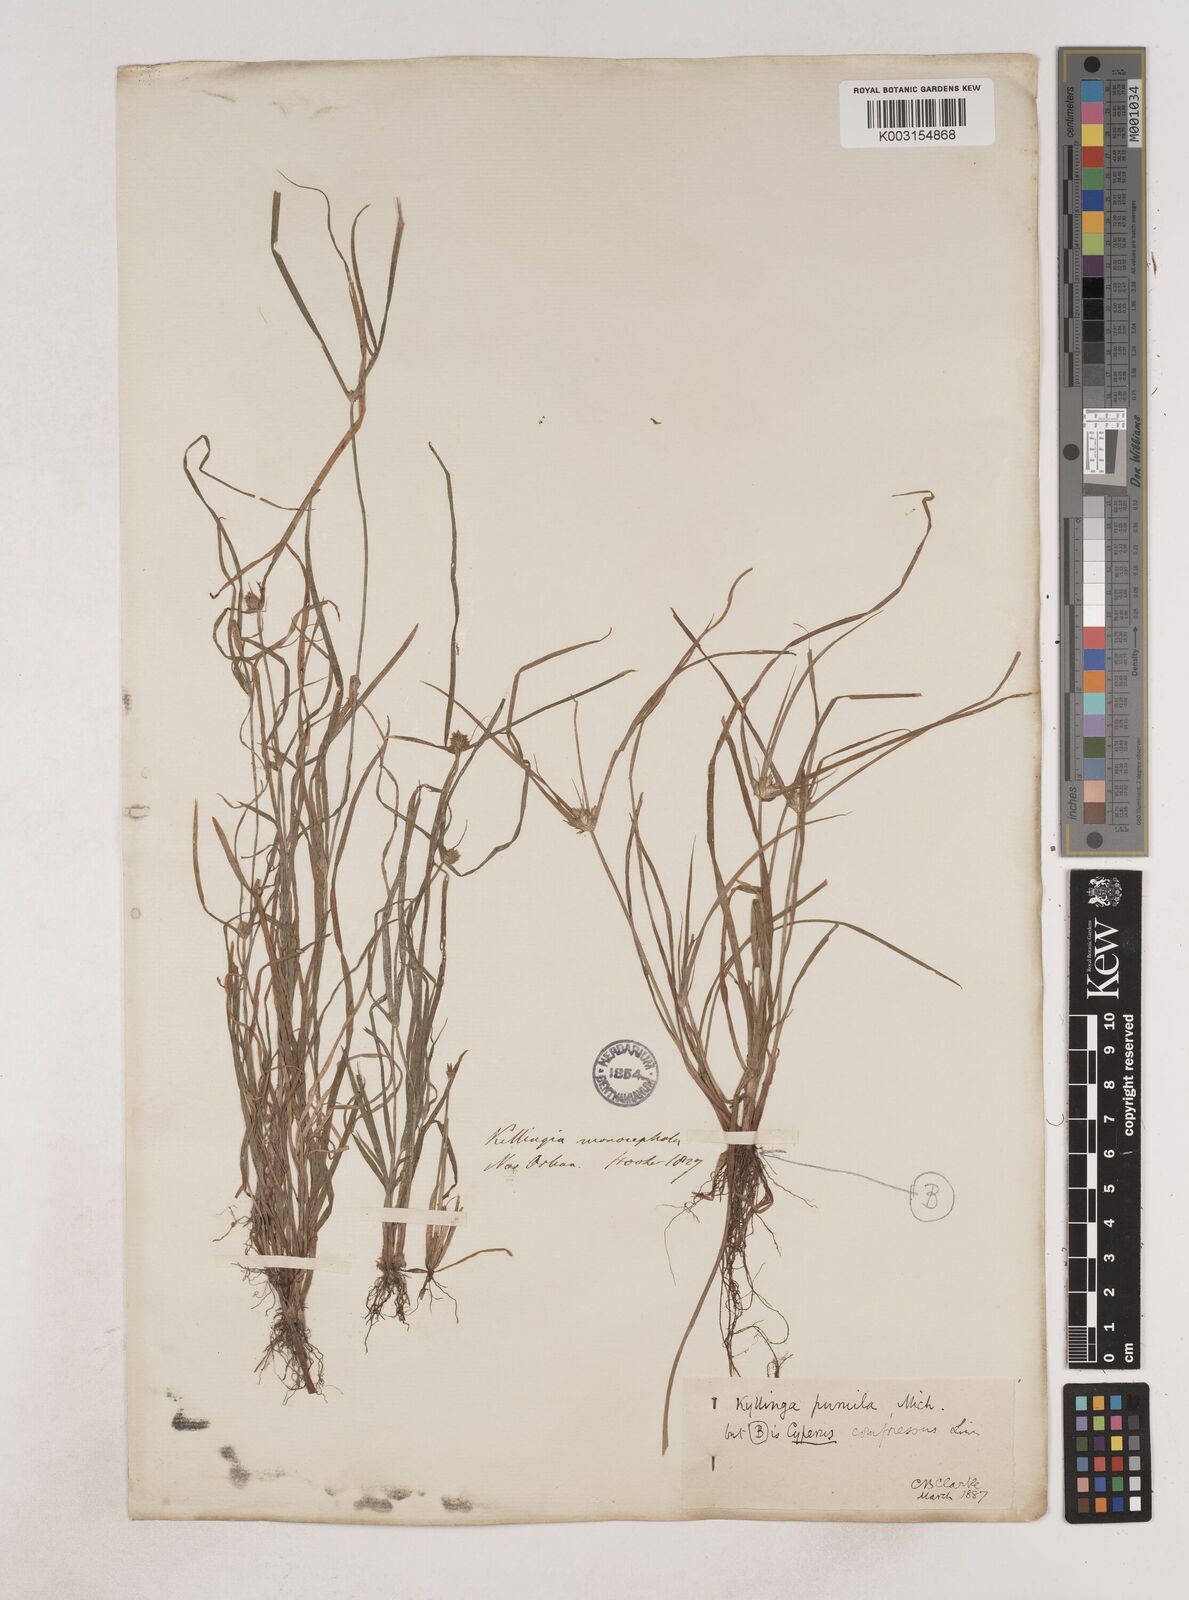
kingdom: Plantae
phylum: Tracheophyta
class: Liliopsida
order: Poales
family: Cyperaceae
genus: Cyperus
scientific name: Cyperus compressus
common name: Poorland flatsedge
